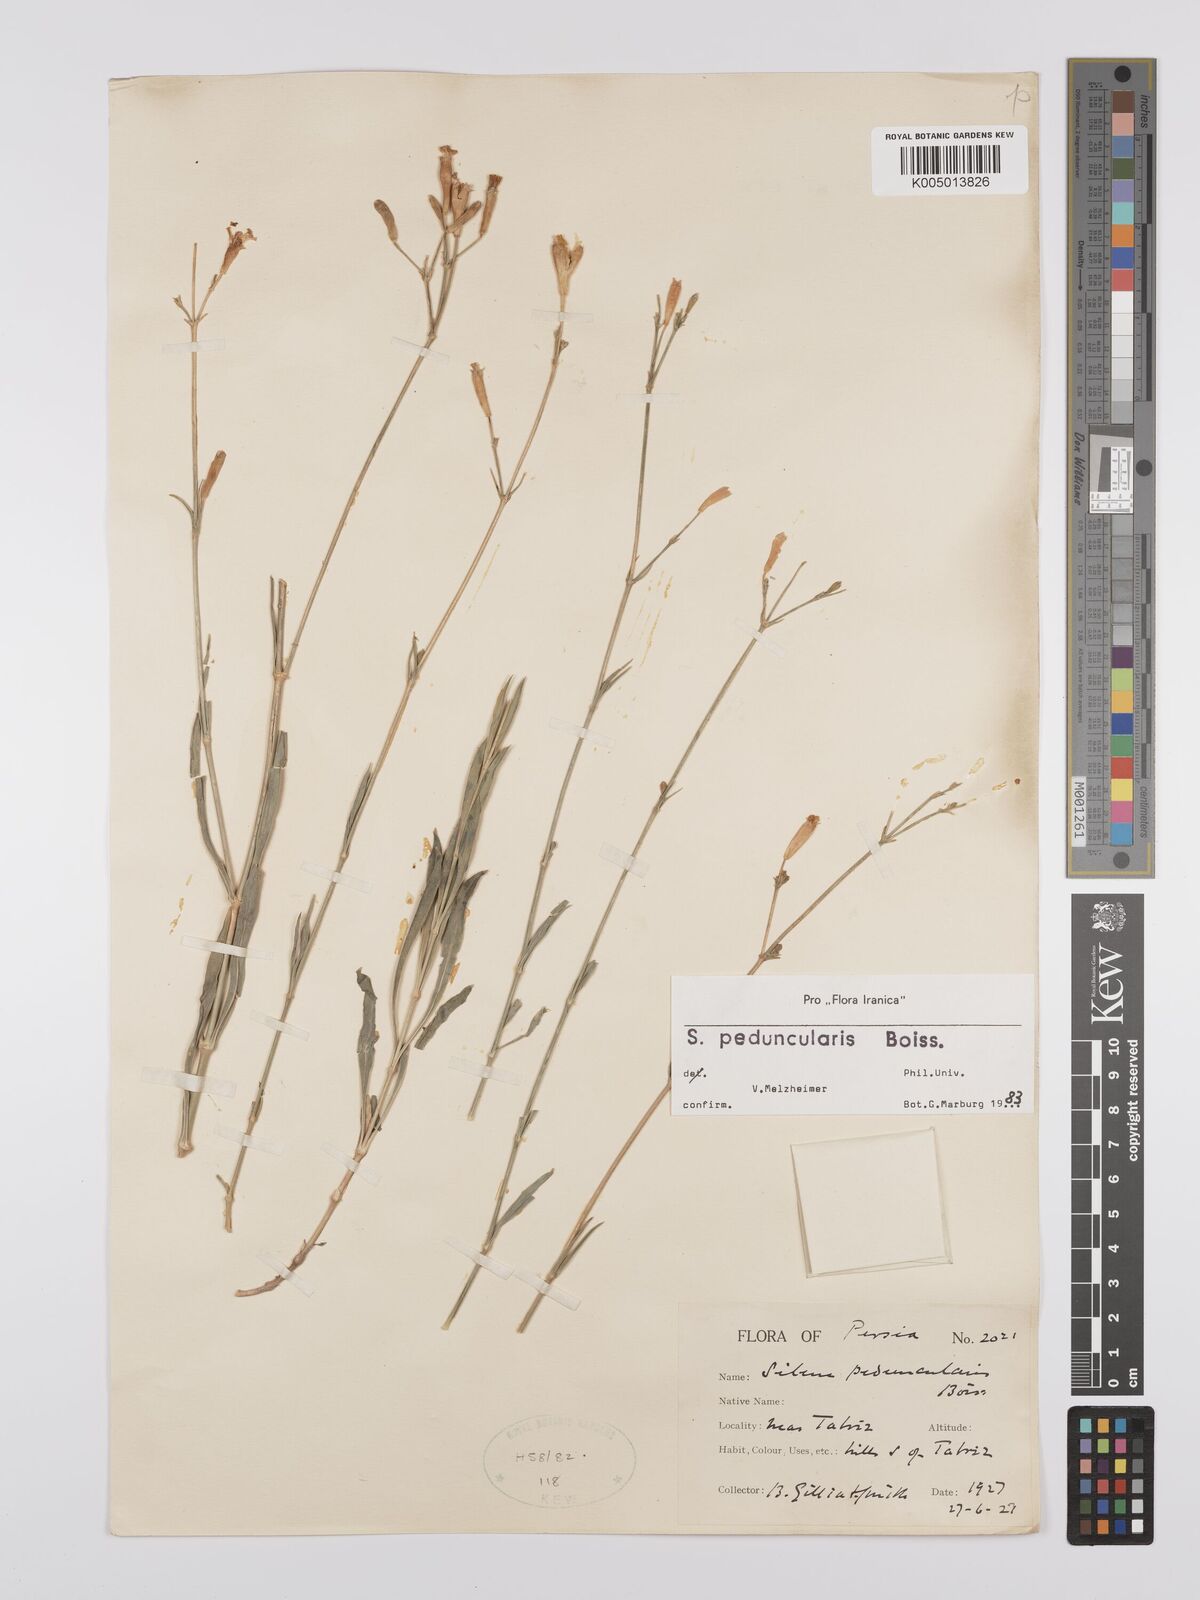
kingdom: Plantae
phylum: Tracheophyta
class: Magnoliopsida
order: Caryophyllales
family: Caryophyllaceae
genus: Silene
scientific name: Silene peduncularis
